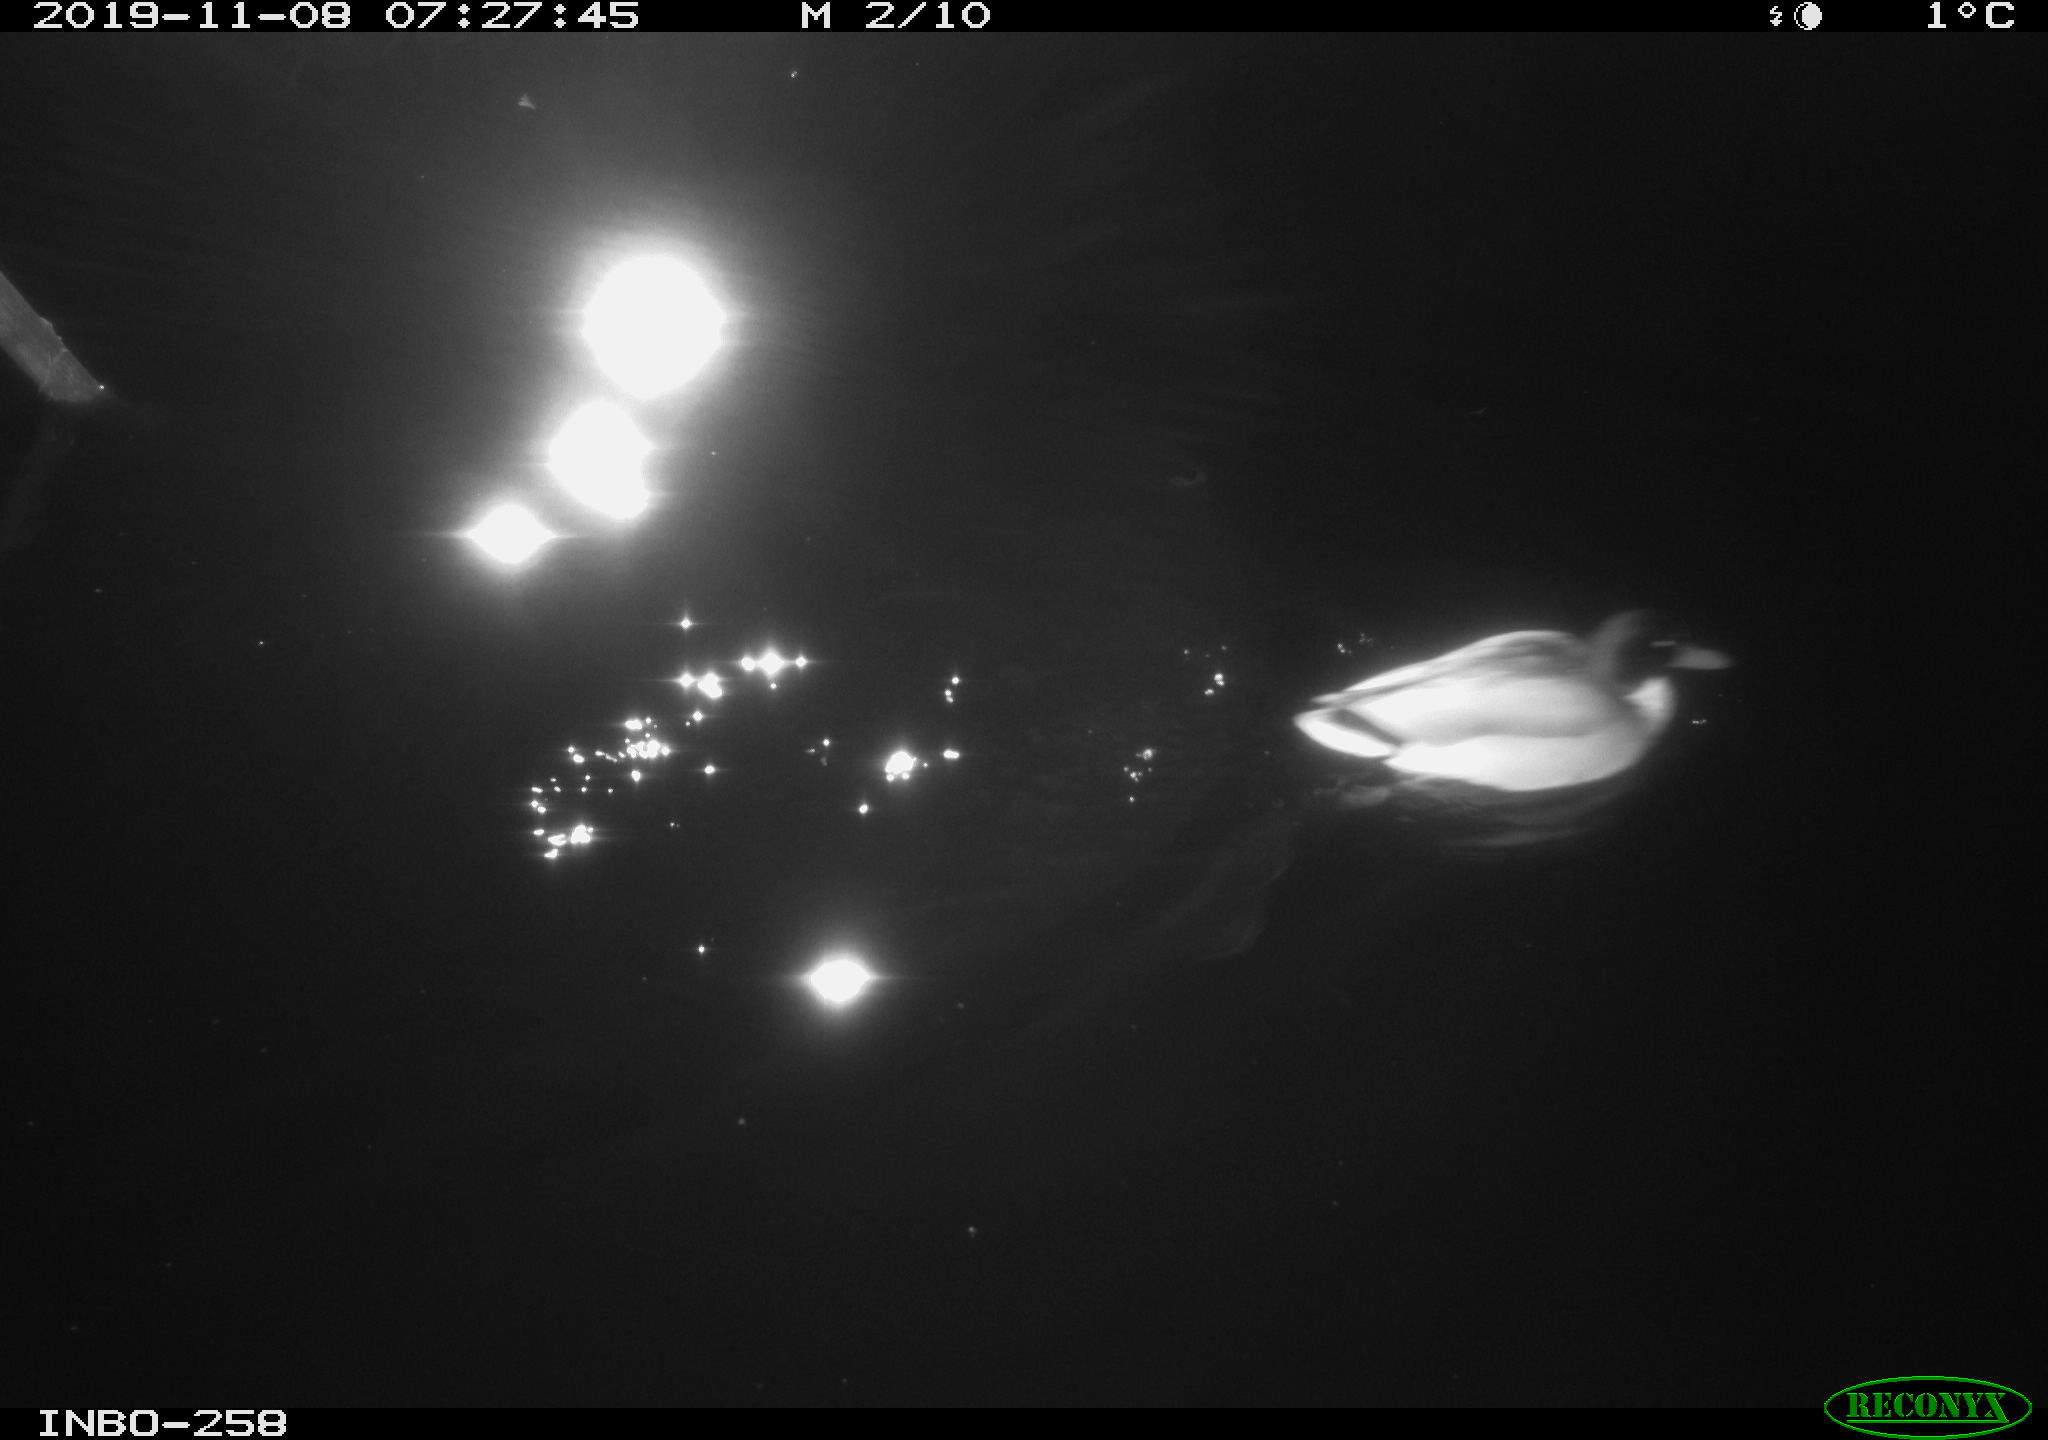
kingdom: Animalia
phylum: Chordata
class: Aves
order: Anseriformes
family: Anatidae
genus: Anas
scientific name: Anas platyrhynchos
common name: Mallard
